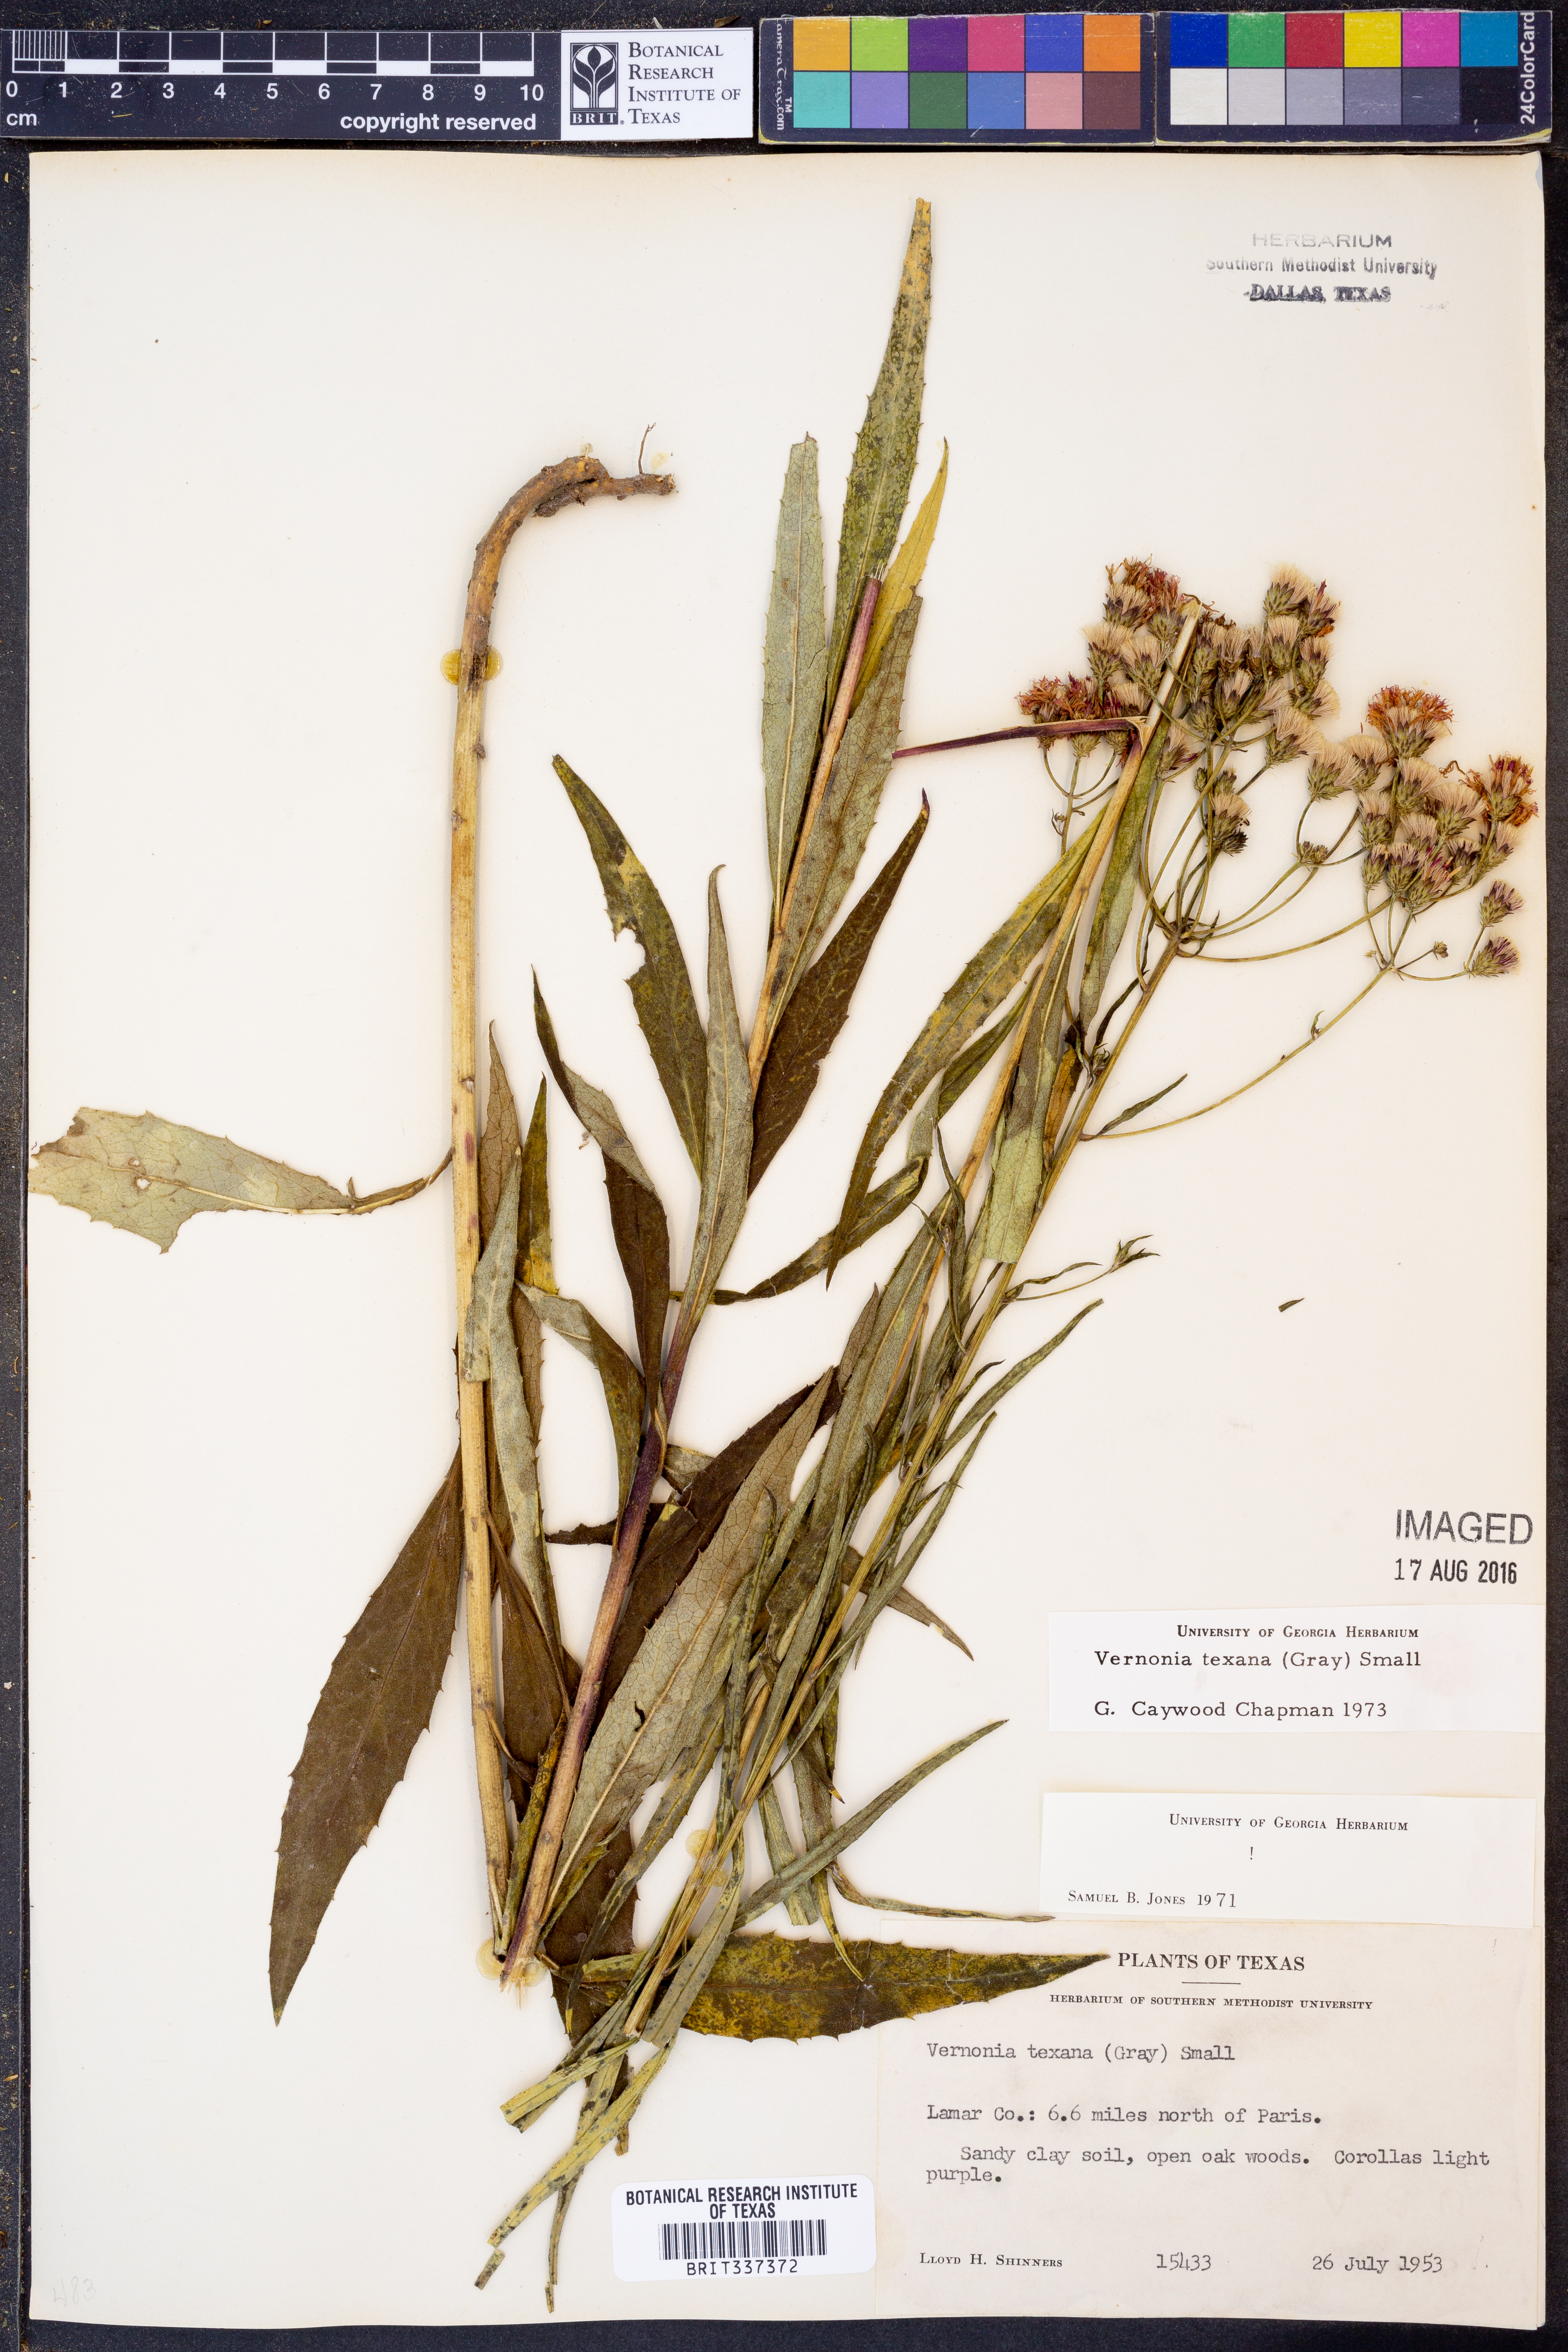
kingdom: Plantae
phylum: Tracheophyta
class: Magnoliopsida
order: Asterales
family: Asteraceae
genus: Vernonia
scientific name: Vernonia texana
